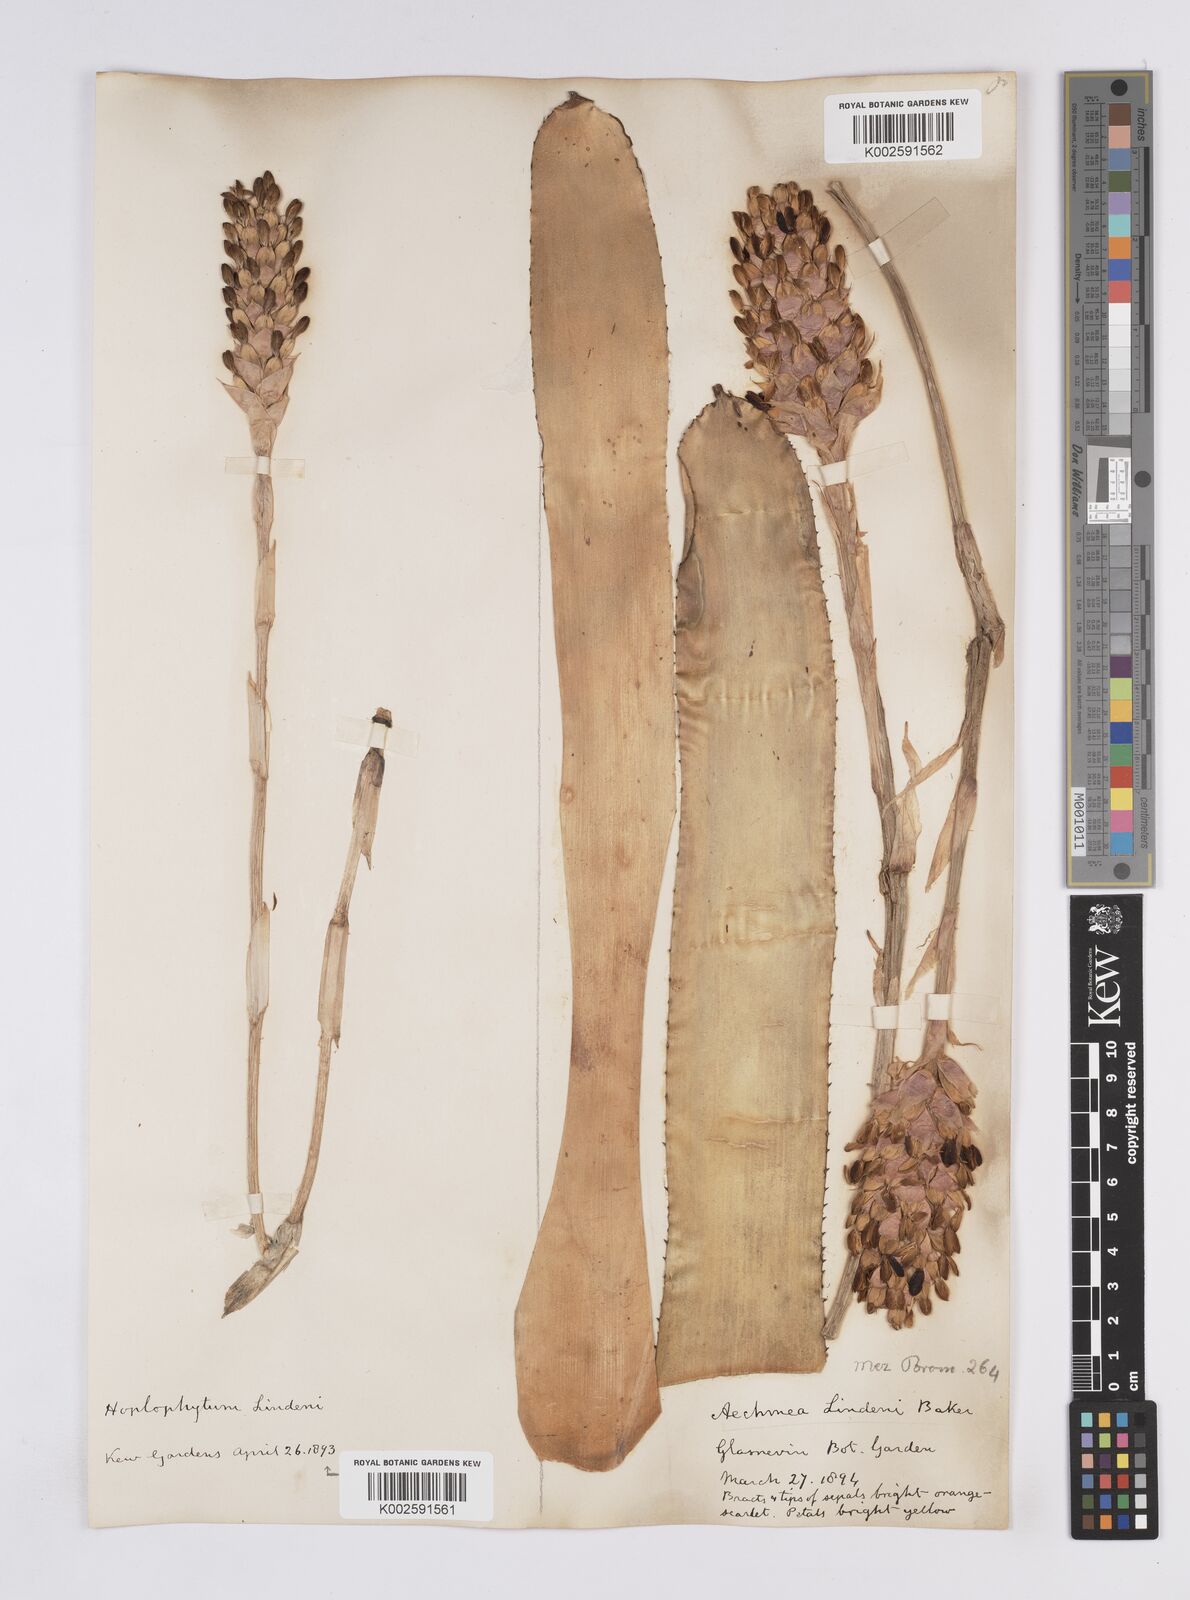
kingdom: Plantae
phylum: Tracheophyta
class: Liliopsida
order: Poales
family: Bromeliaceae
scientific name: Bromeliaceae
